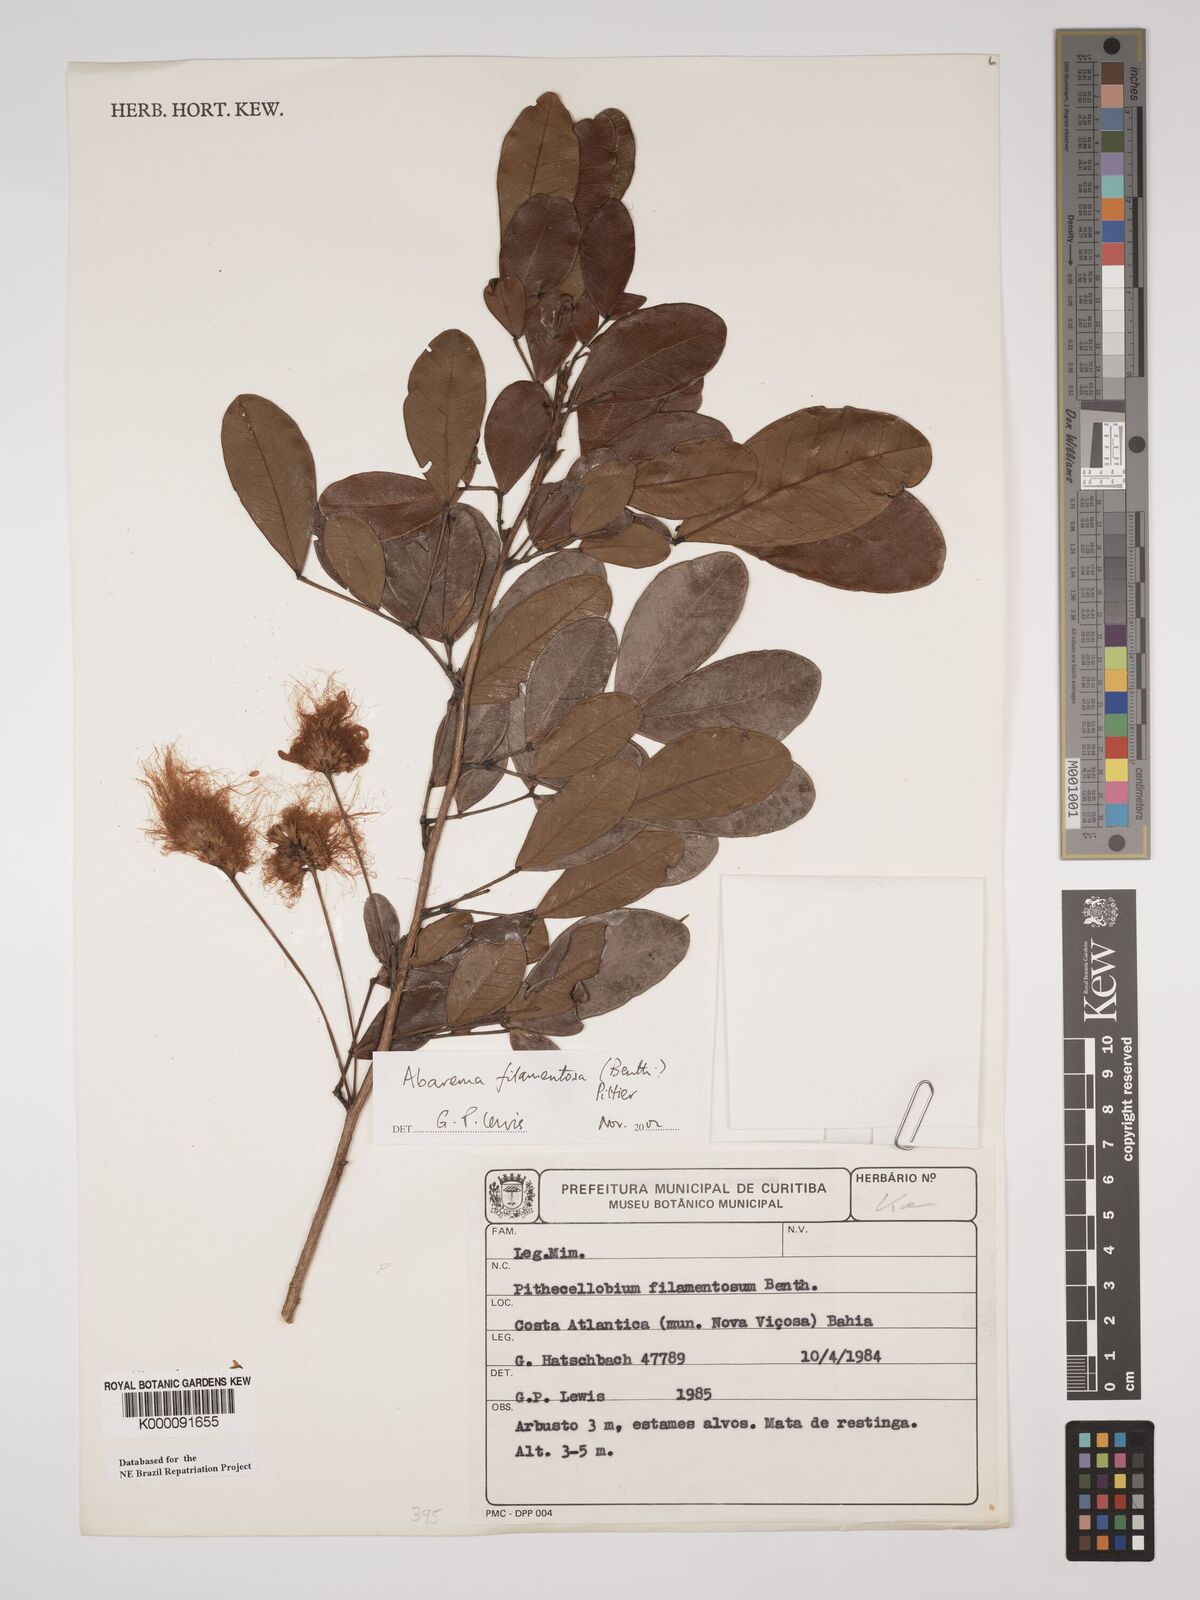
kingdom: Plantae
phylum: Tracheophyta
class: Magnoliopsida
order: Fabales
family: Fabaceae
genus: Jupunba
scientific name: Jupunba filamentosa
